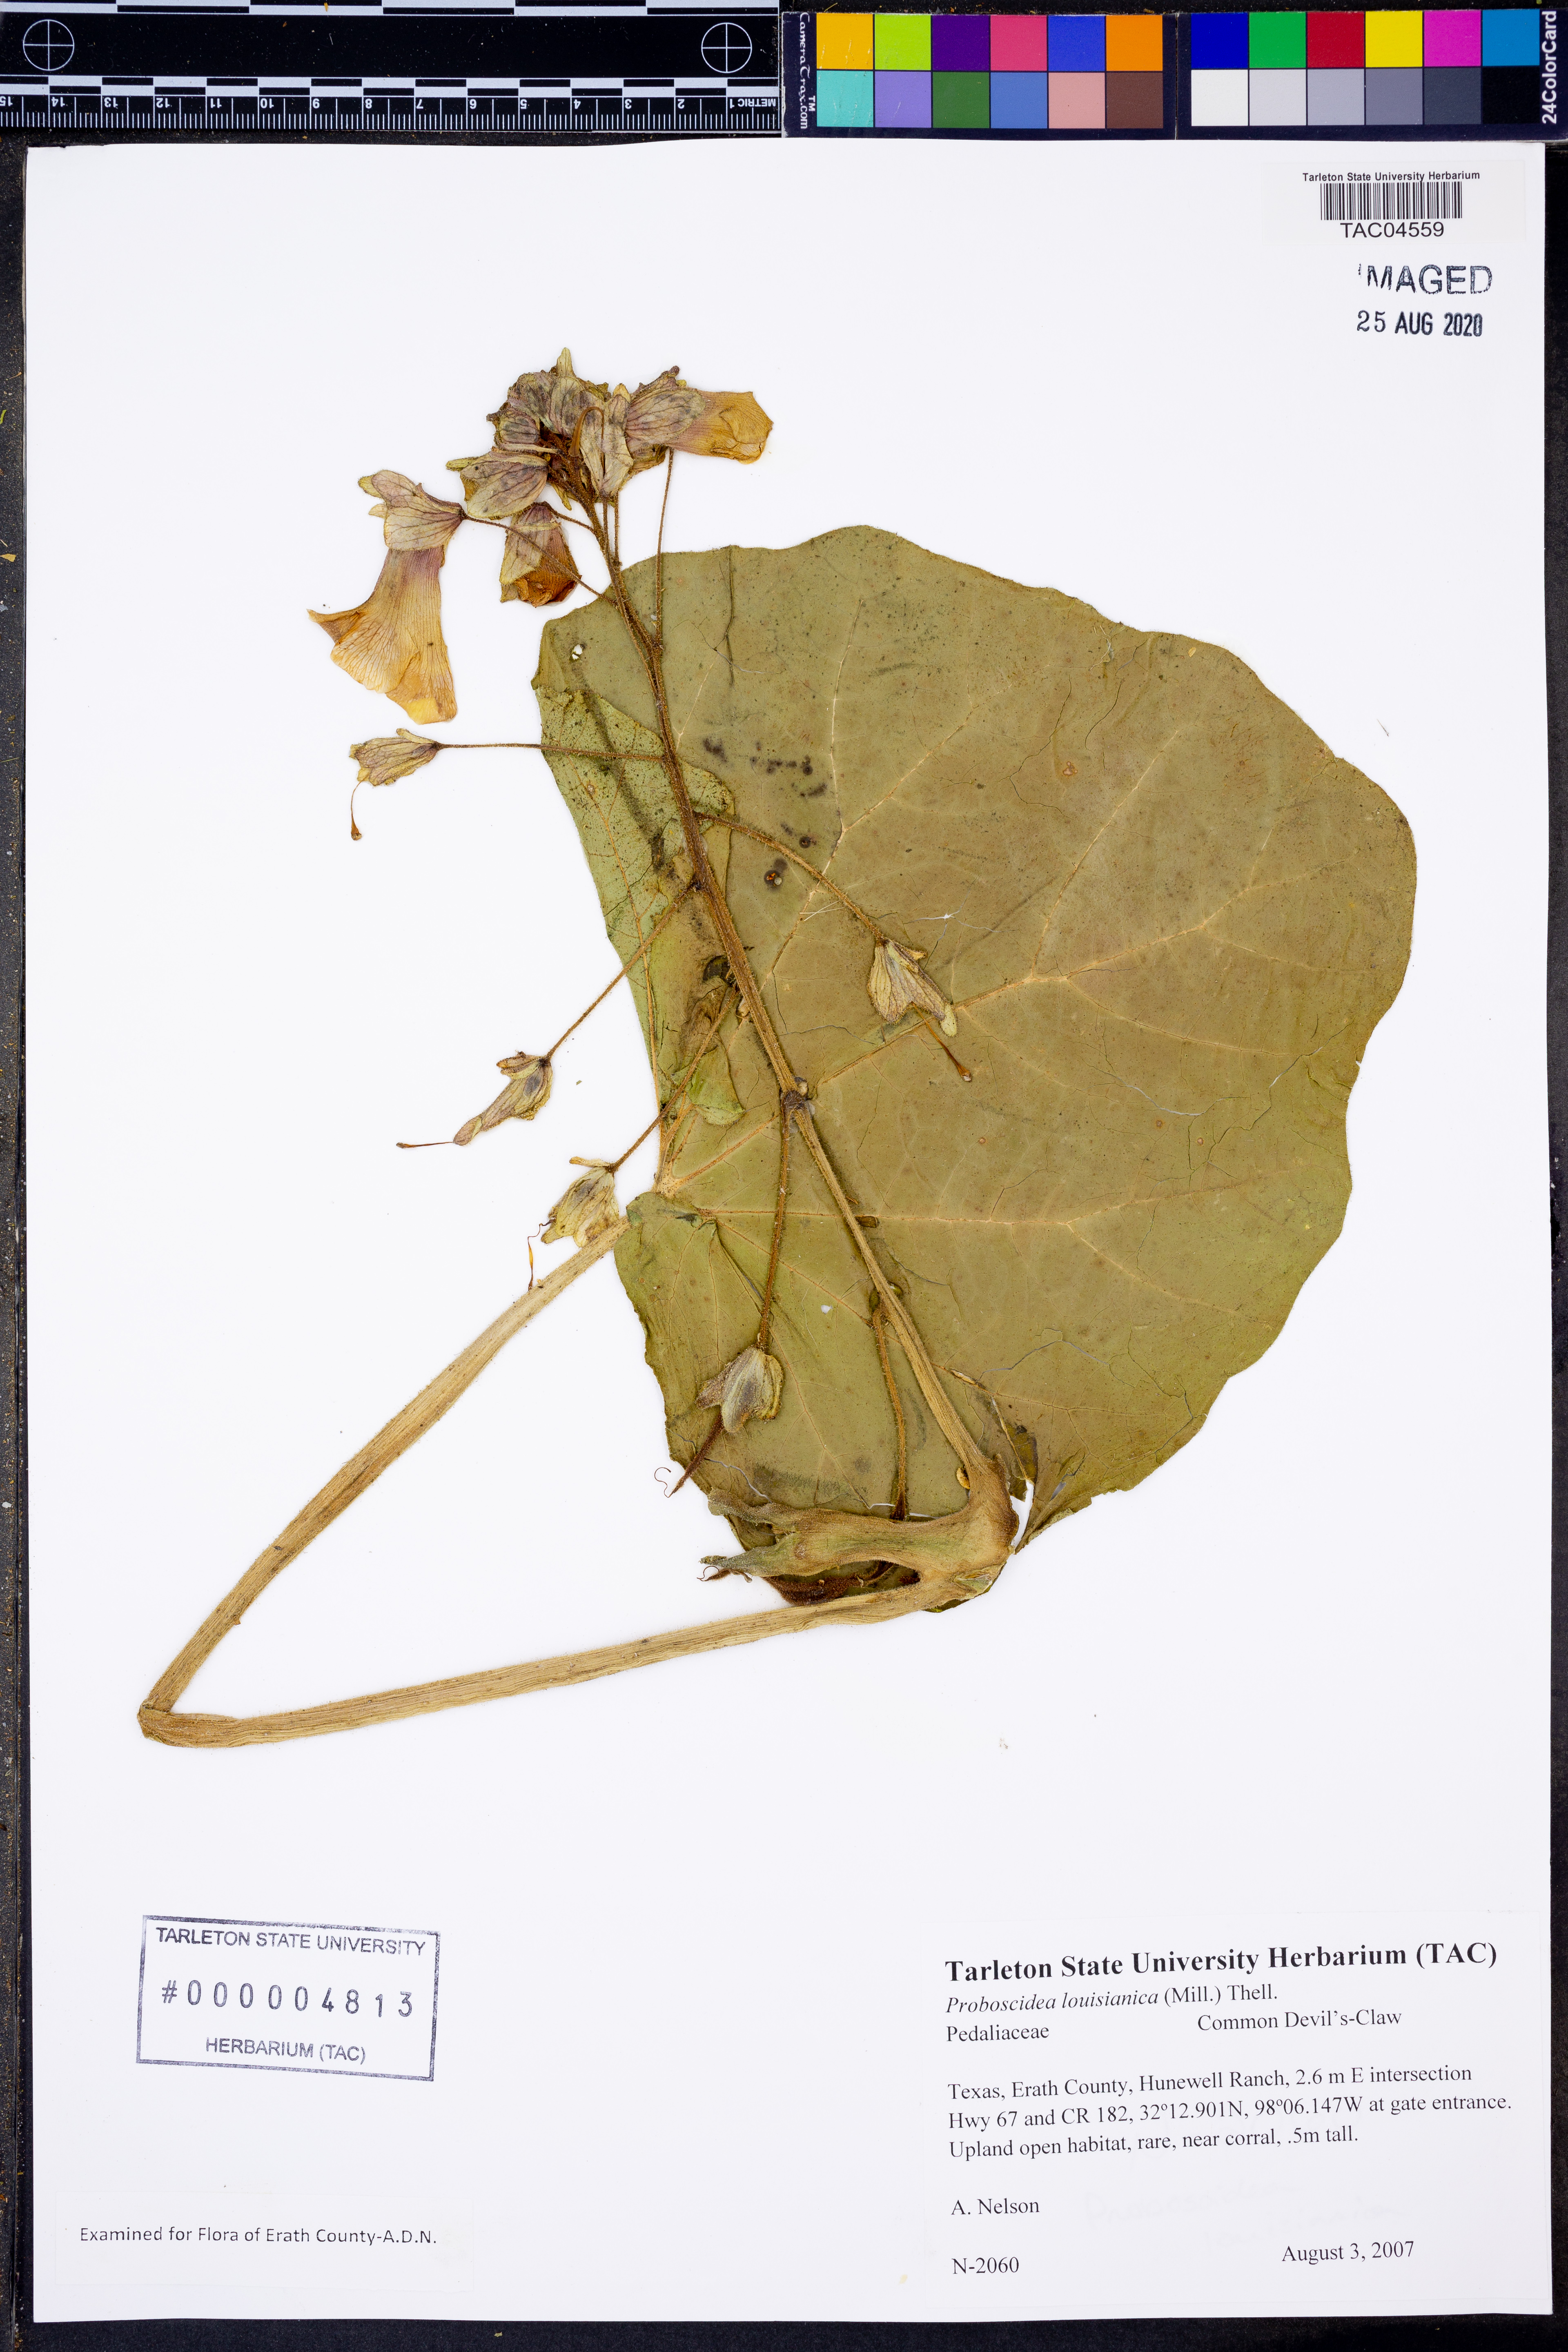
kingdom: Plantae
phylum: Tracheophyta
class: Magnoliopsida
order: Lamiales
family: Martyniaceae
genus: Proboscidea
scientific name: Proboscidea louisianica
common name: Elephant tusks
